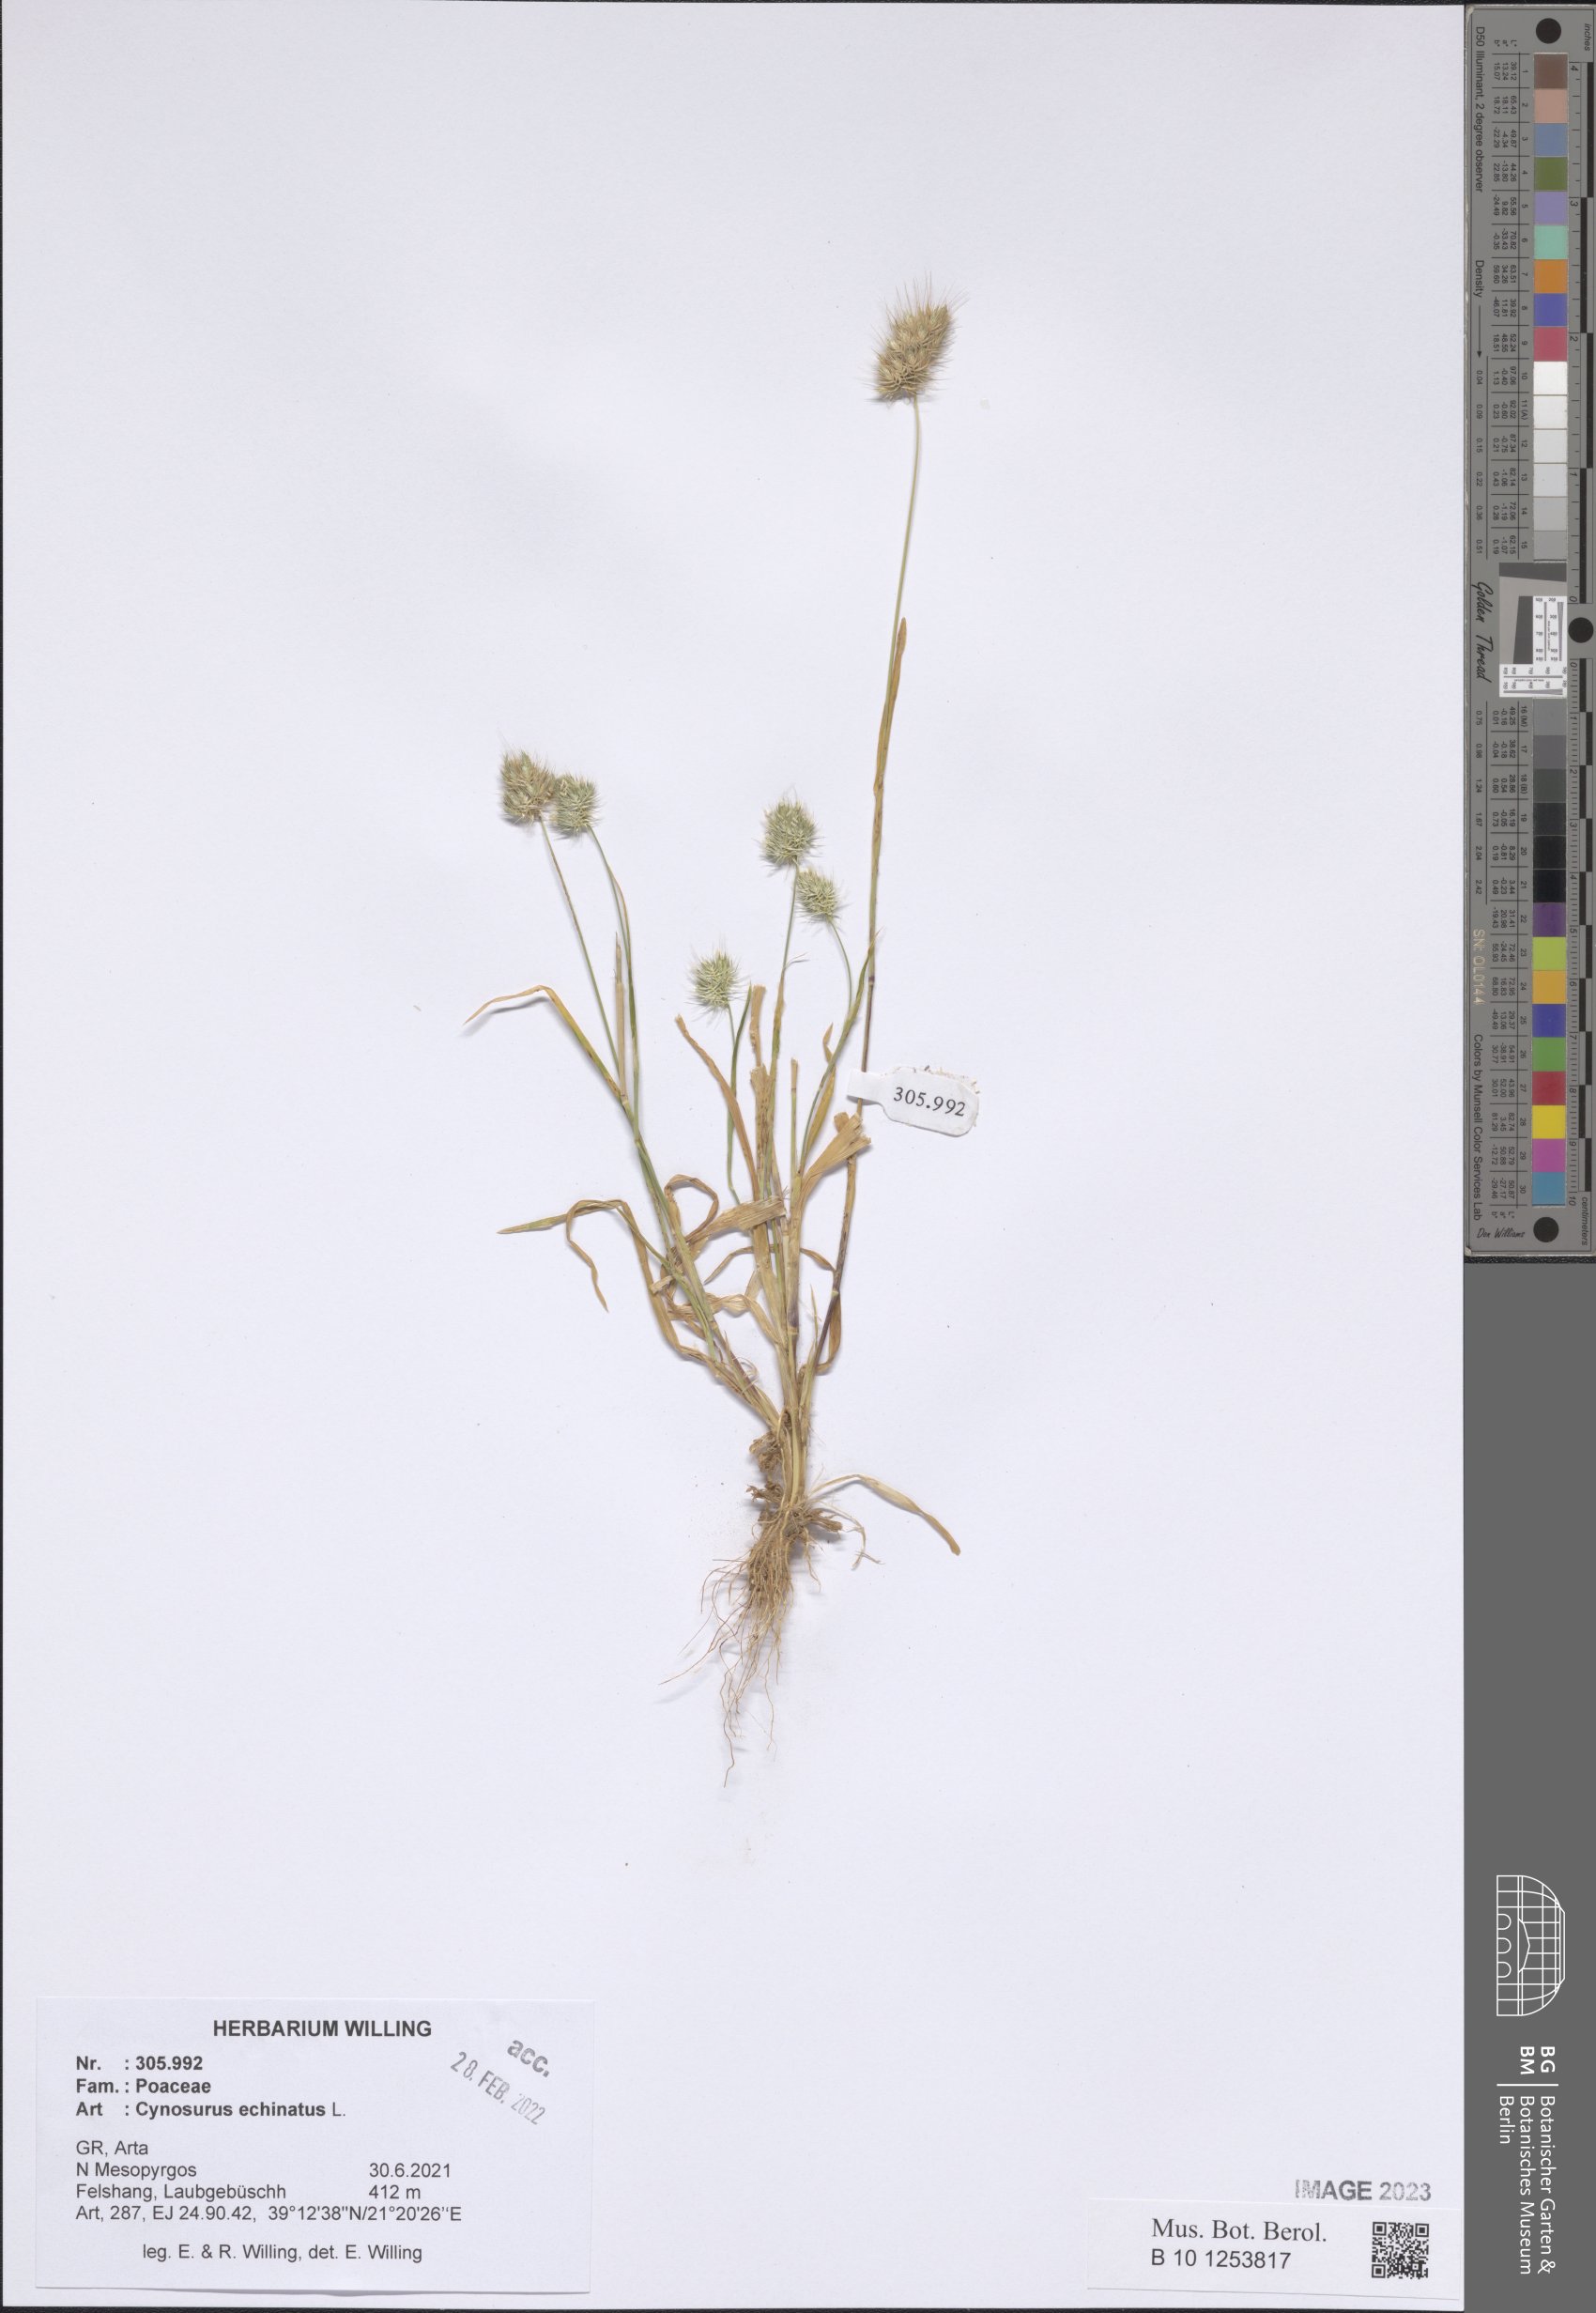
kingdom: Plantae
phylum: Tracheophyta
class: Liliopsida
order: Poales
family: Poaceae
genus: Cynosurus
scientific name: Cynosurus echinatus
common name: Rough dog's-tail
